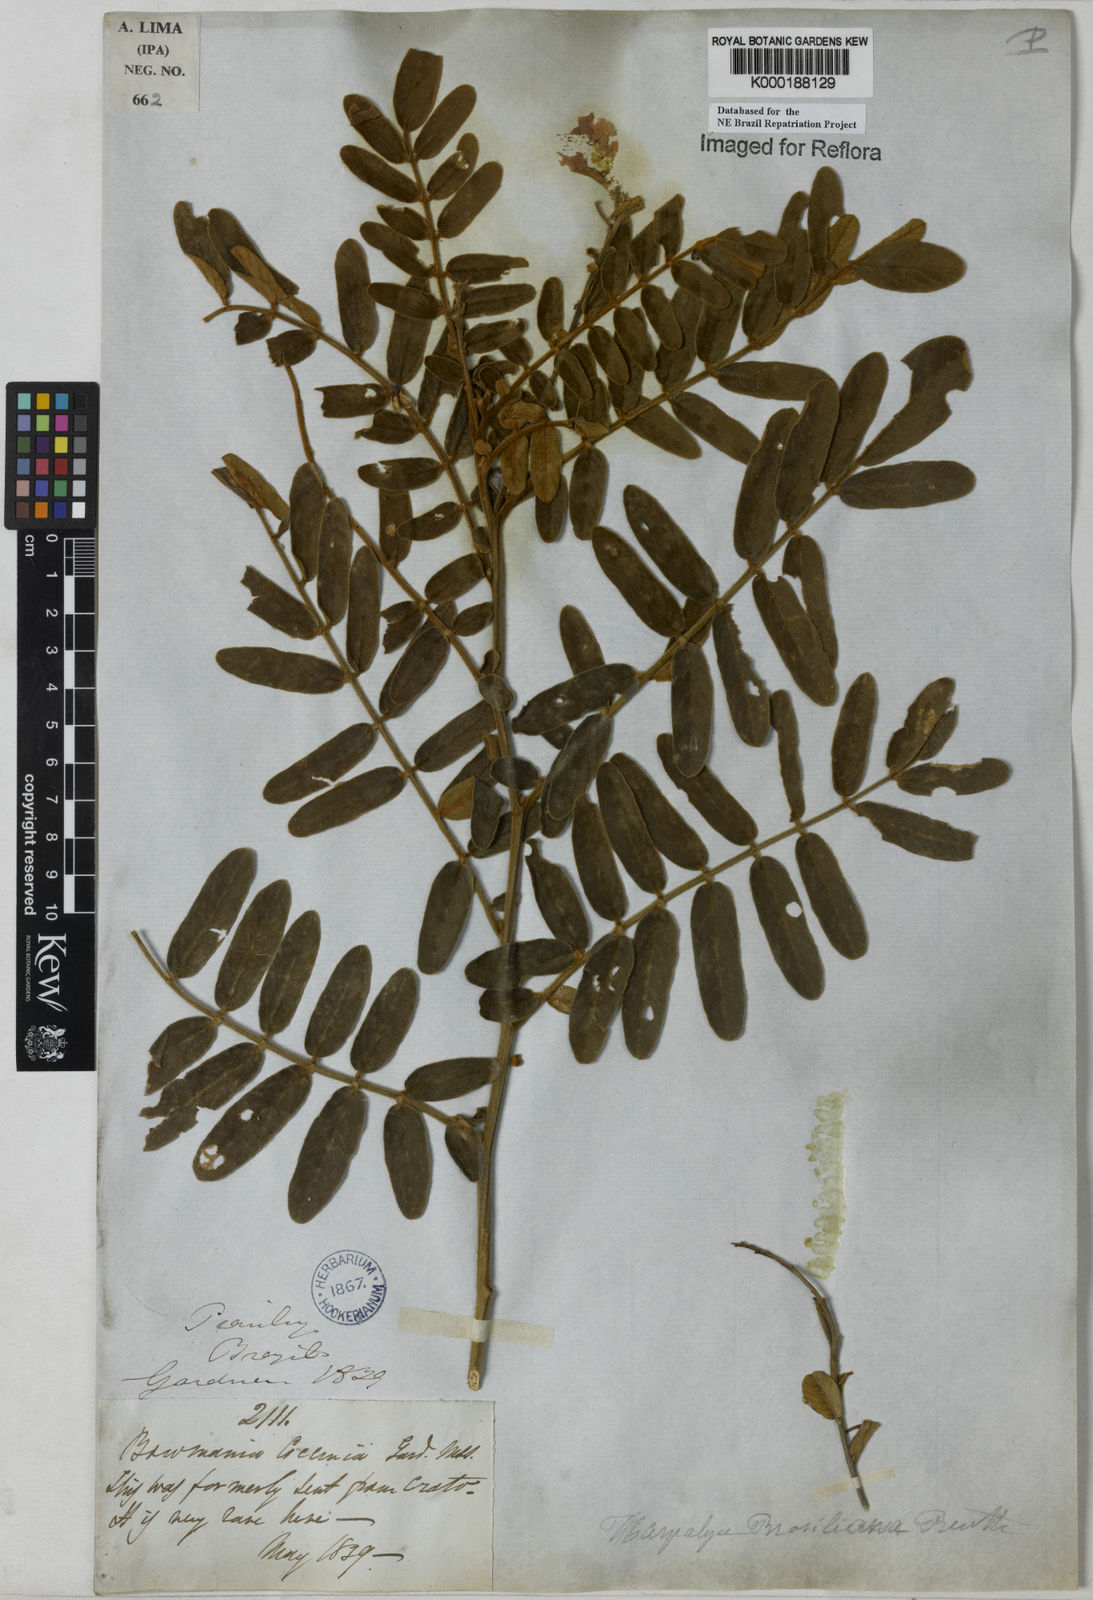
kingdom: Plantae
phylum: Tracheophyta
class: Magnoliopsida
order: Fabales
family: Fabaceae
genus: Harpalyce
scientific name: Harpalyce brasiliana
